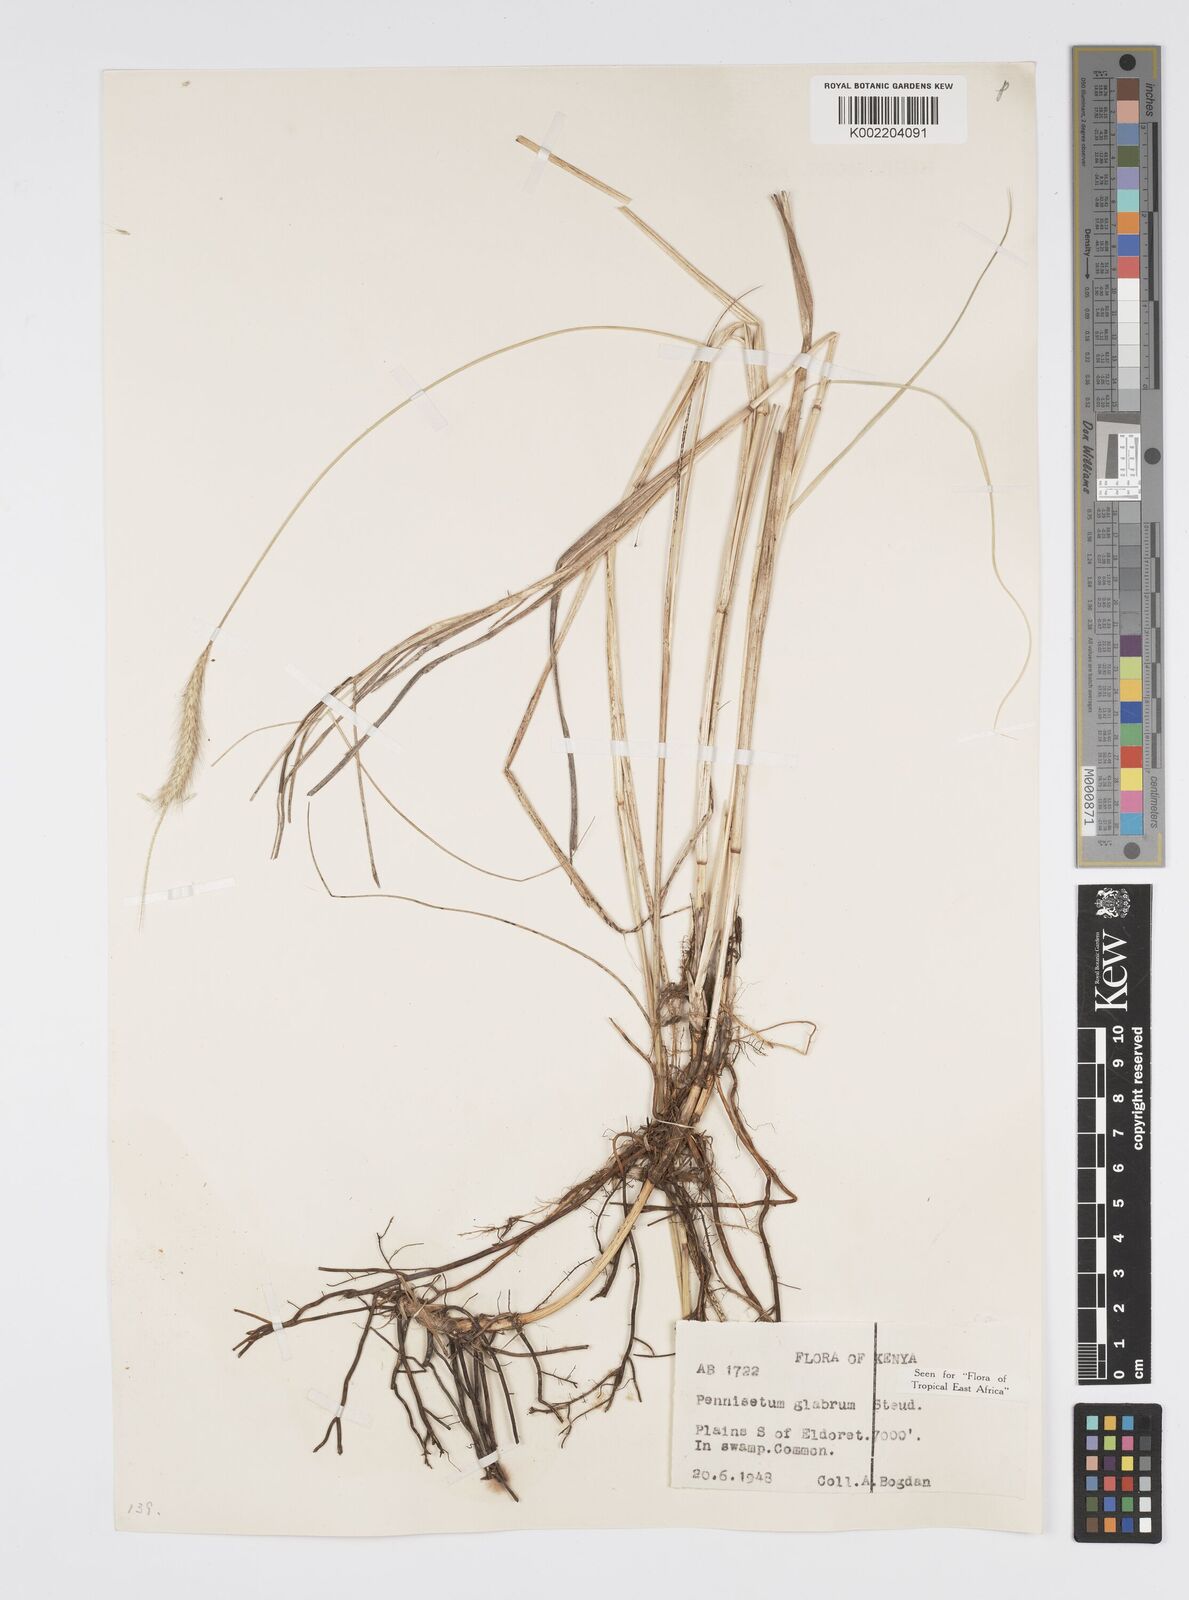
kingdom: Plantae
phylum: Tracheophyta
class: Liliopsida
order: Poales
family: Poaceae
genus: Cenchrus
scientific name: Cenchrus geniculatus
